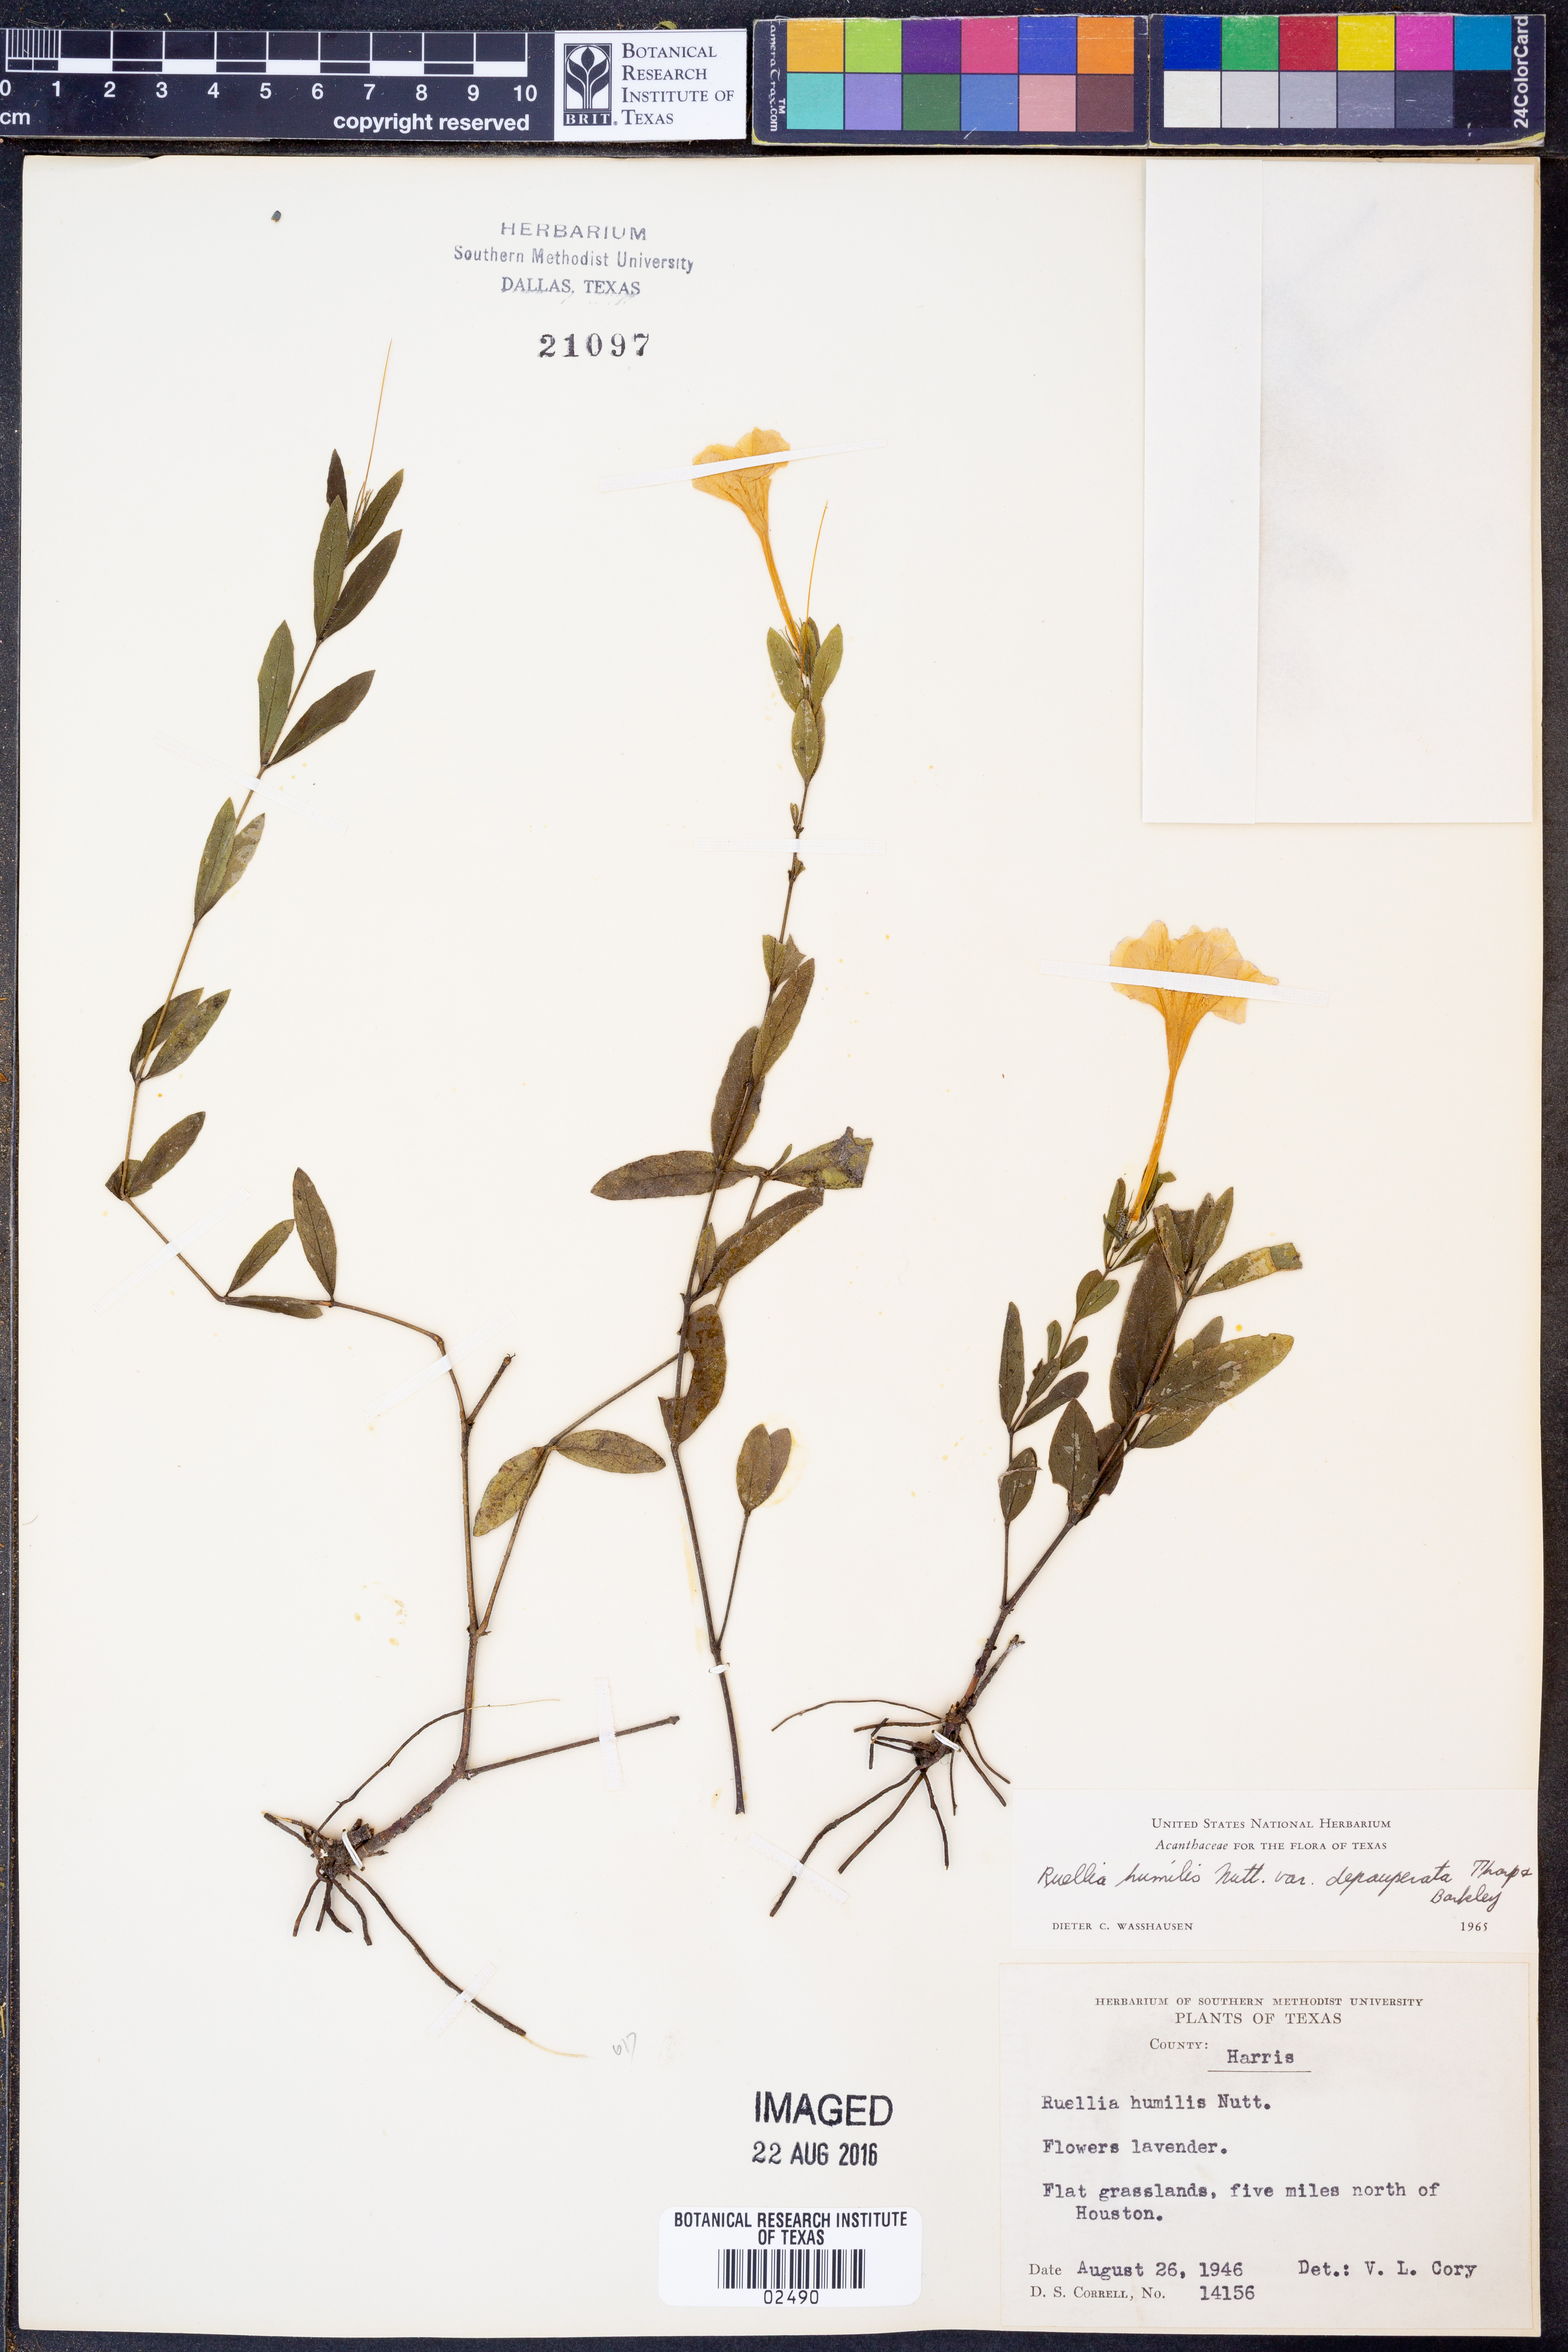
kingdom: Plantae
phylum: Tracheophyta
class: Magnoliopsida
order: Lamiales
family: Acanthaceae
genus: Ruellia
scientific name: Ruellia humilis
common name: Fringe-leaf ruellia
